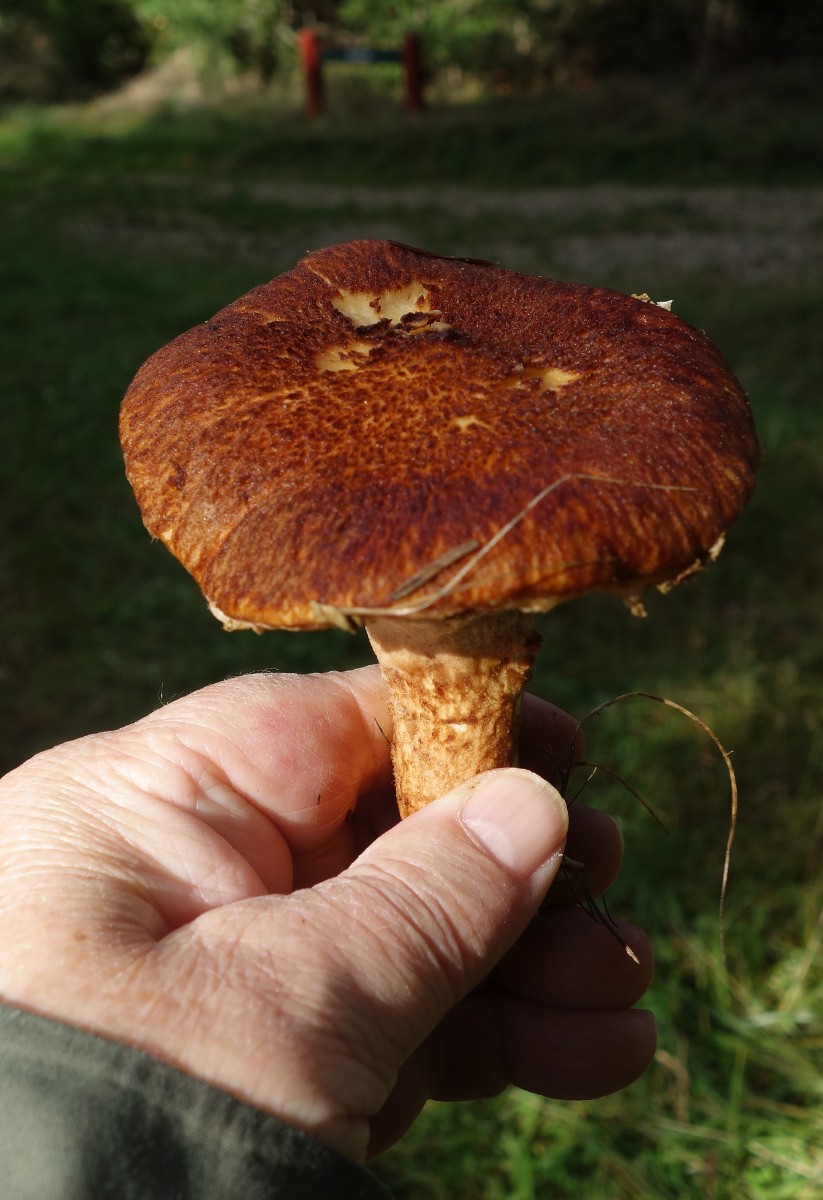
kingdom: Fungi
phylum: Basidiomycota
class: Agaricomycetes
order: Boletales
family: Suillaceae
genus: Suillus
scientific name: Suillus cavipes
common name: hulstokket slimrørhat
